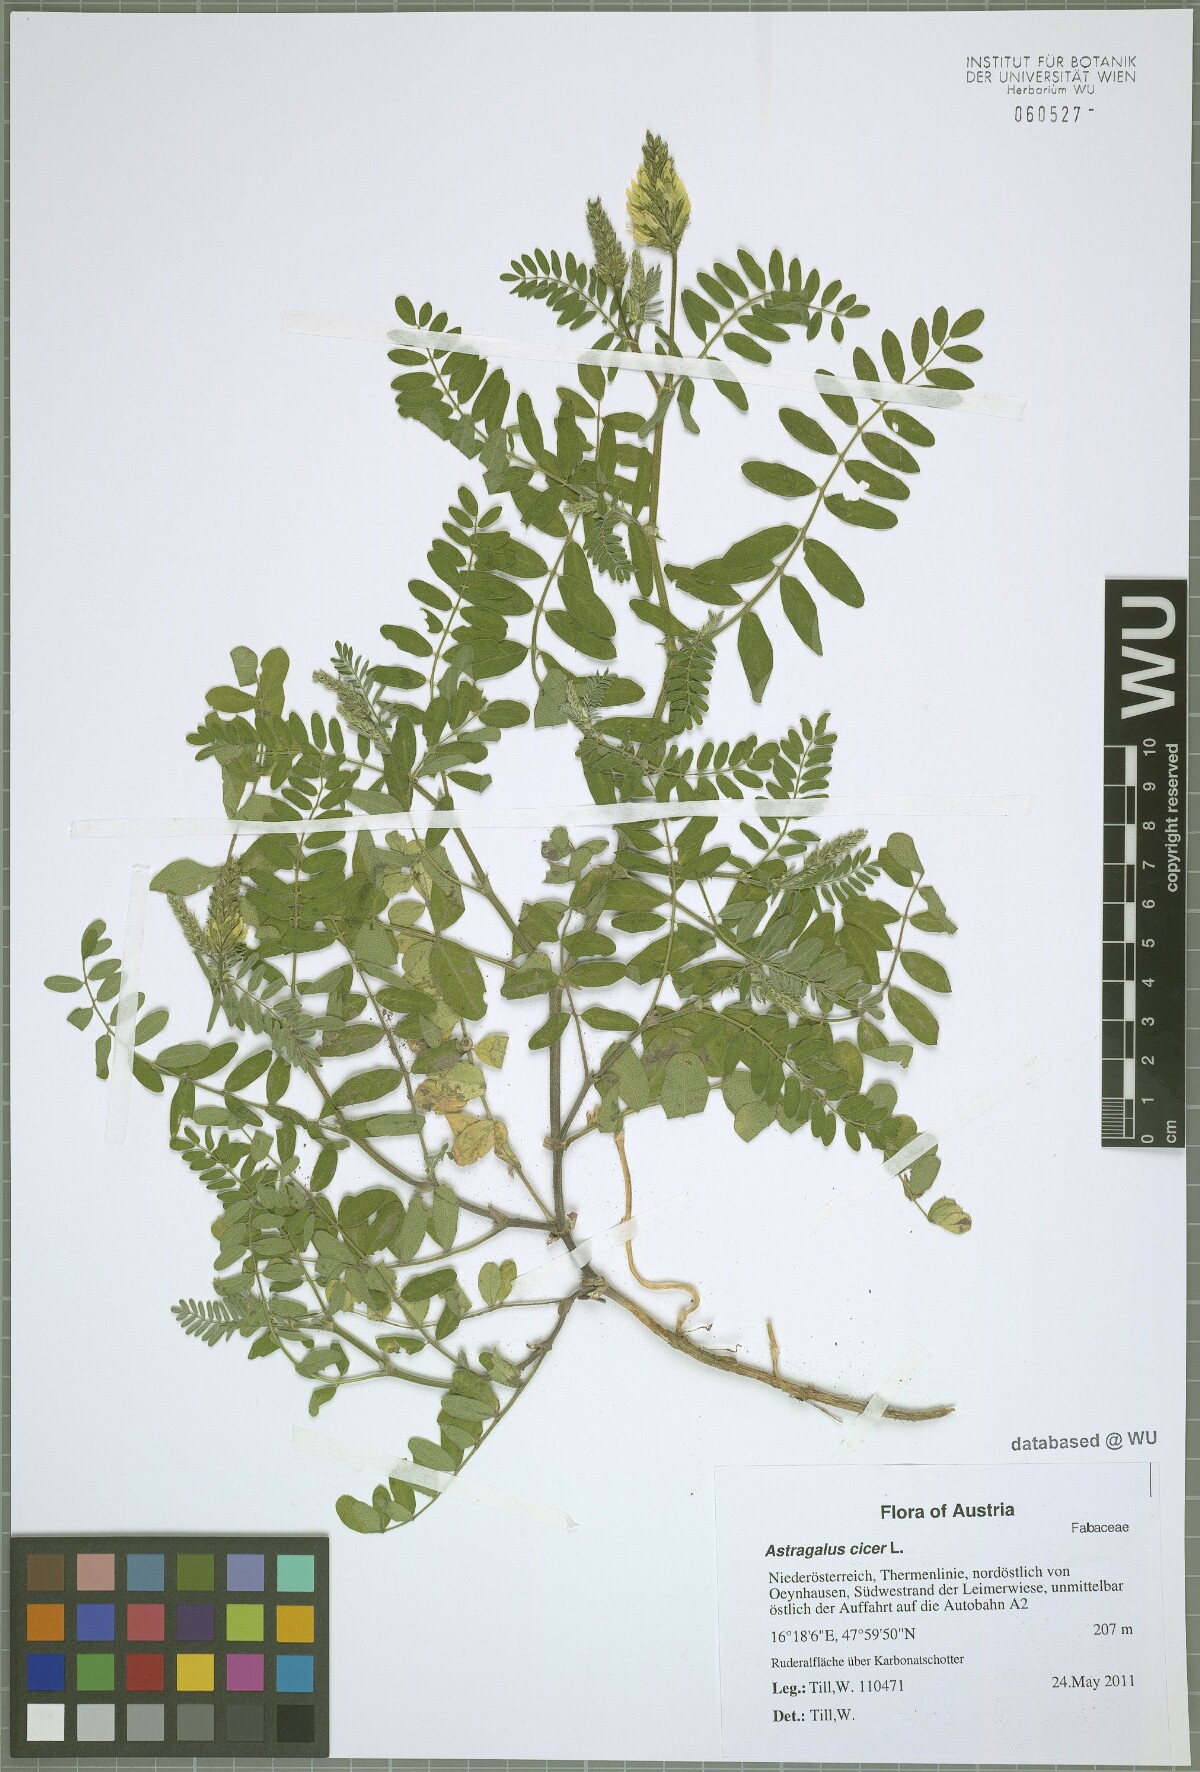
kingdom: Plantae
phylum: Tracheophyta
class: Magnoliopsida
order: Fabales
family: Fabaceae
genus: Astragalus
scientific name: Astragalus cicer
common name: Chick-pea milk-vetch
